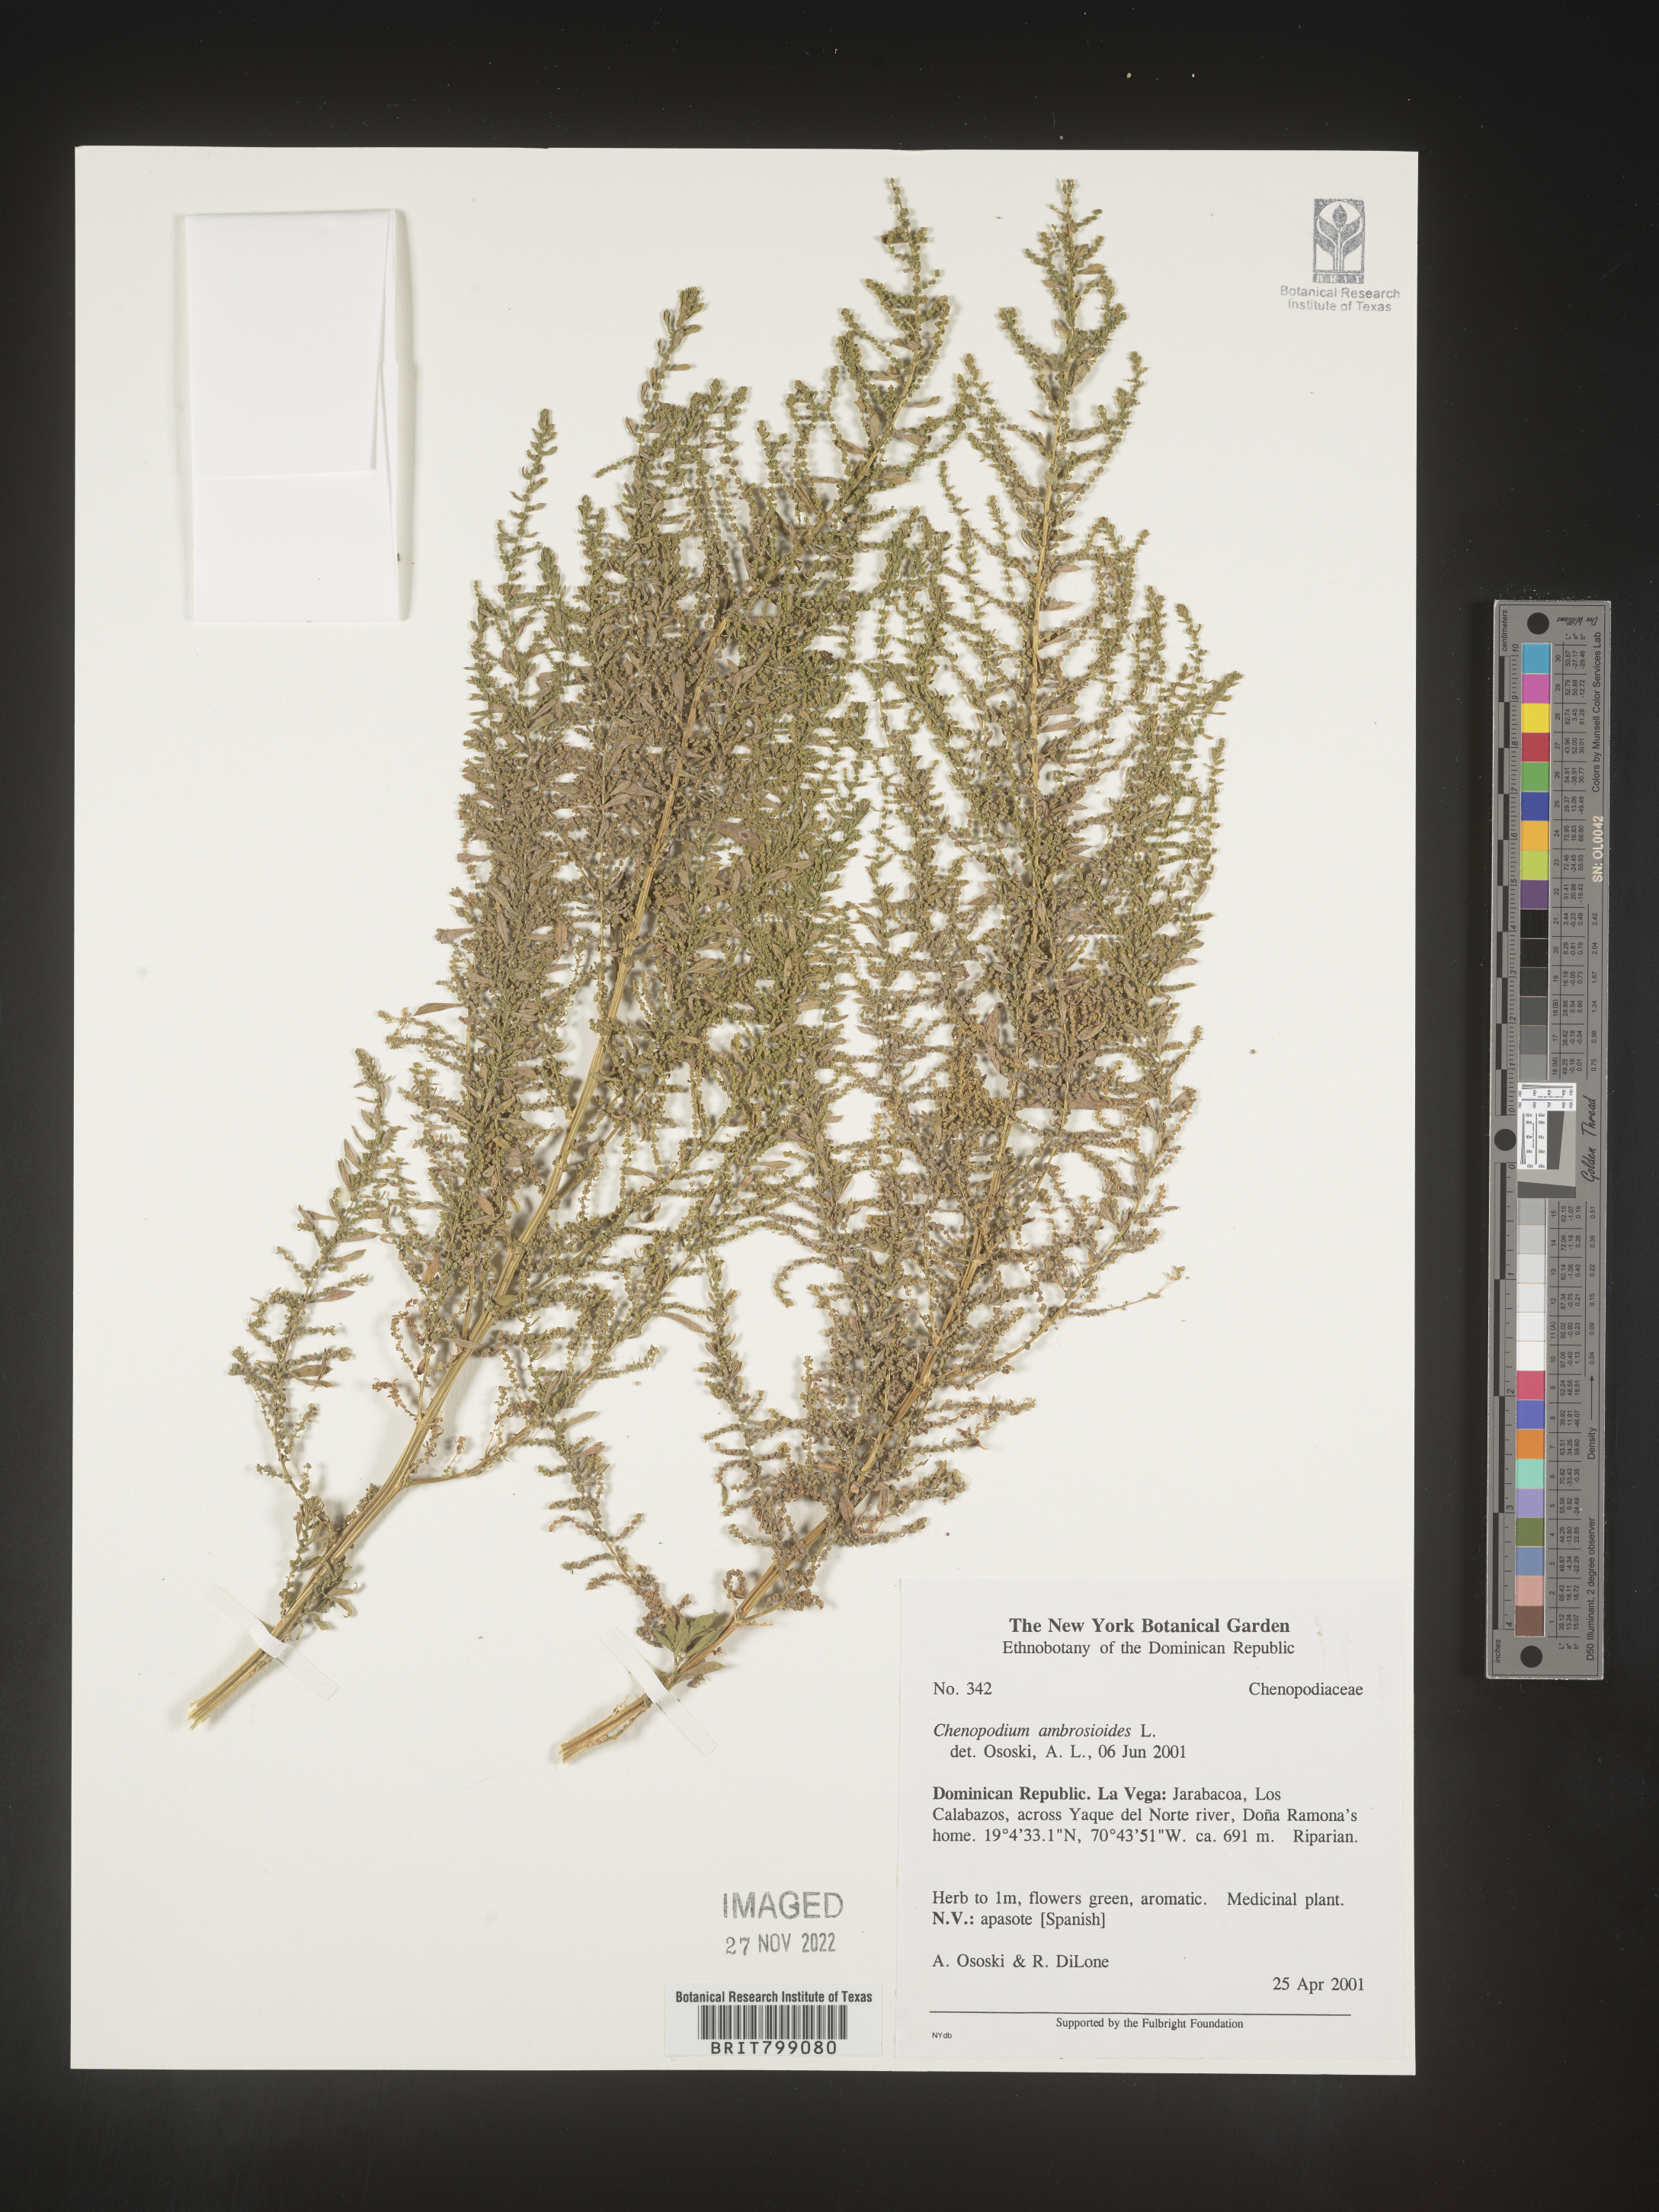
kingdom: Plantae
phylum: Tracheophyta
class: Magnoliopsida
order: Caryophyllales
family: Amaranthaceae
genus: Chenopodium
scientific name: Chenopodium
